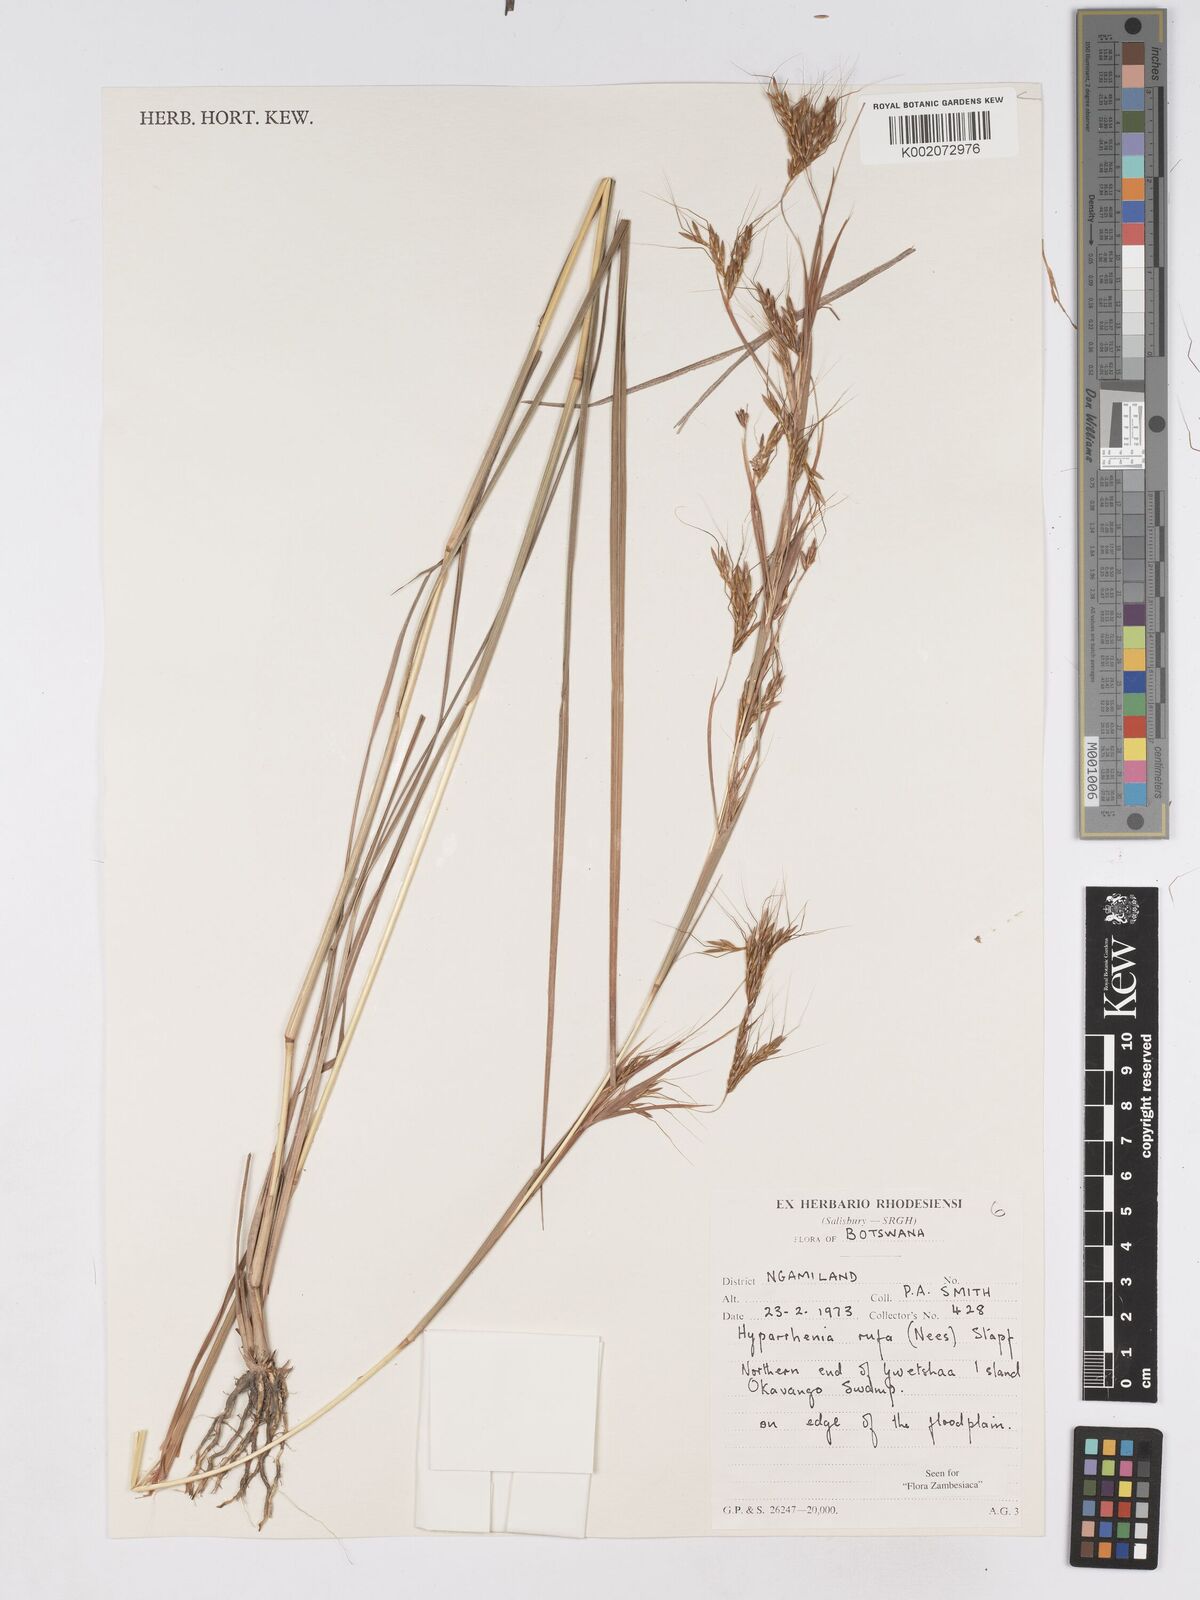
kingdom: Plantae
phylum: Tracheophyta
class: Liliopsida
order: Poales
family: Poaceae
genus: Hyparrhenia
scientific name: Hyparrhenia rufa
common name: Jaraguagrass
